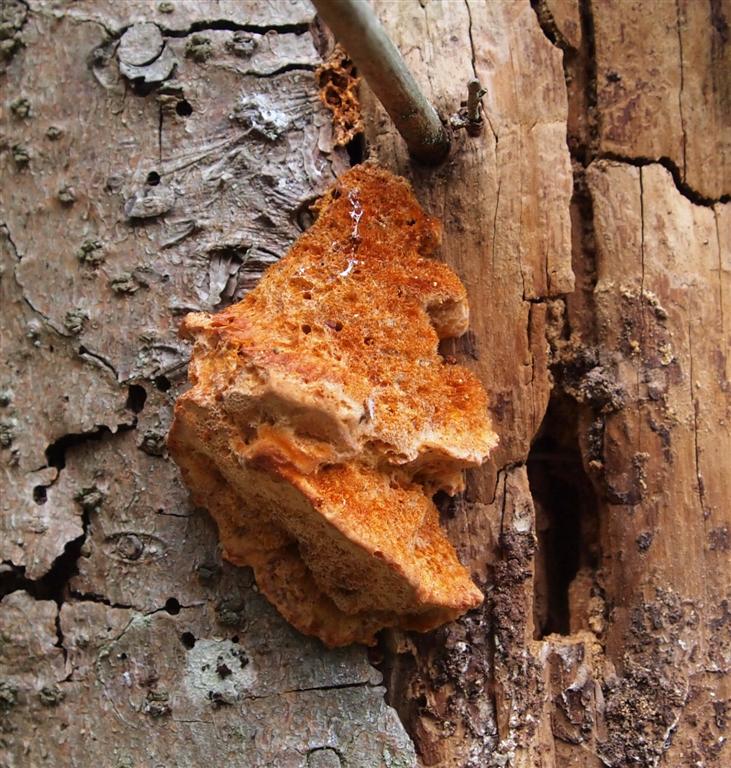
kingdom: Fungi
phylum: Basidiomycota
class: Agaricomycetes
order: Polyporales
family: Pycnoporellaceae
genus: Pycnoporellus
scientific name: Pycnoporellus fulgens
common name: flammeporesvamp
